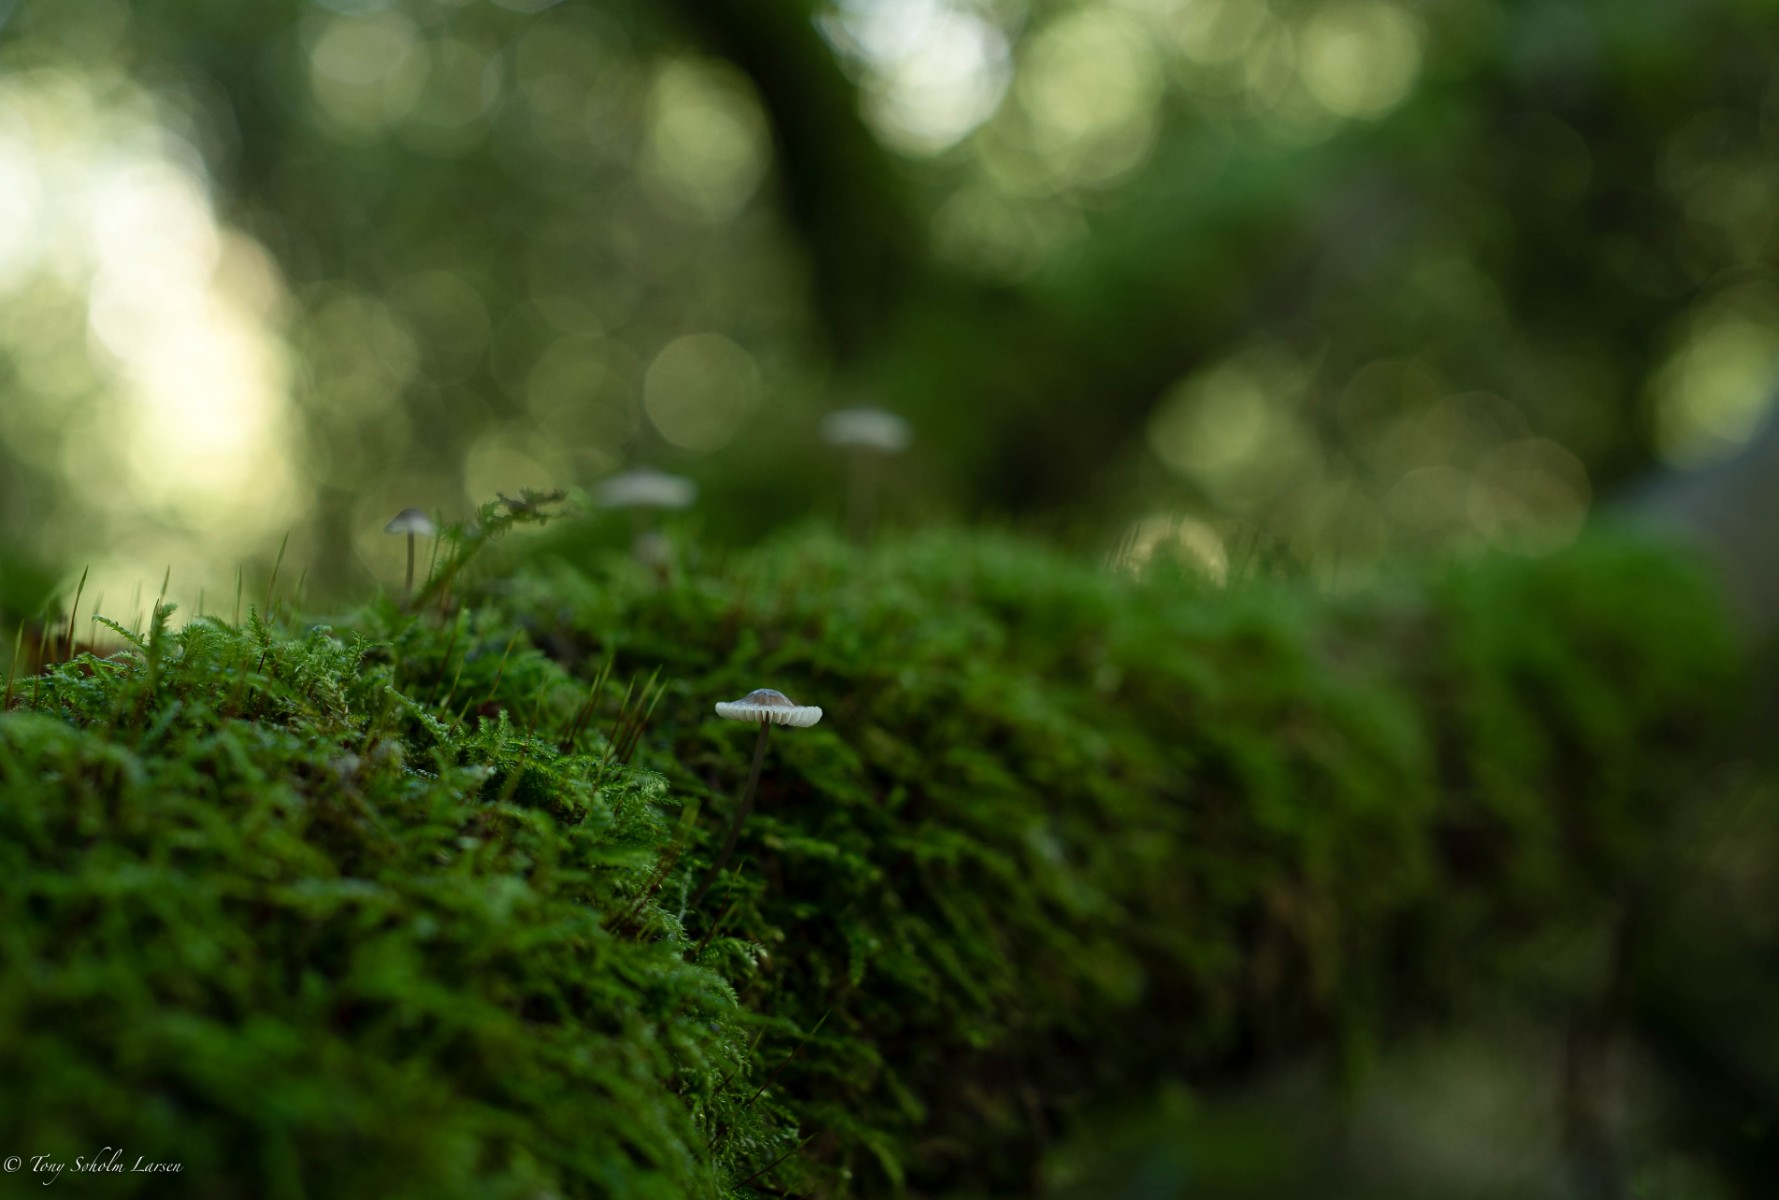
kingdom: Fungi
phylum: Basidiomycota
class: Agaricomycetes
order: Agaricales
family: Mycenaceae
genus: Mycena
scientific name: Mycena
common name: huesvamp
